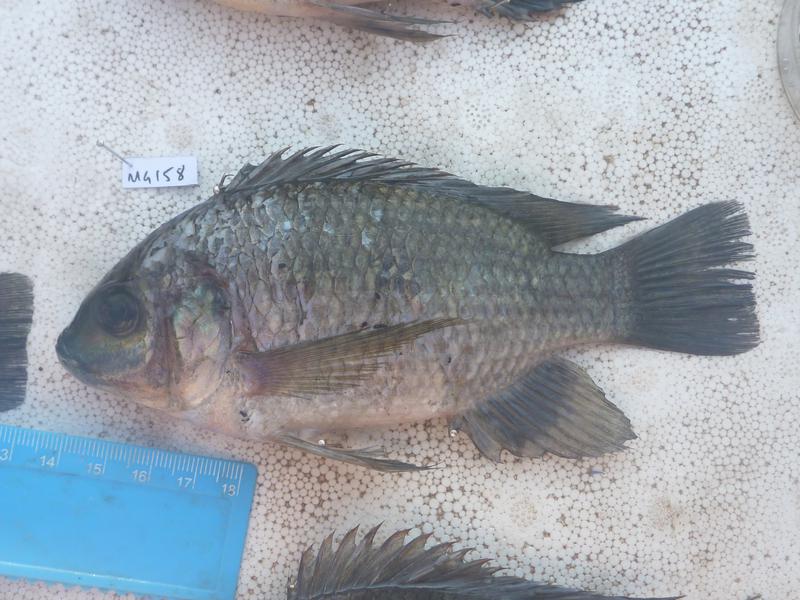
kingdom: Animalia
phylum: Chordata
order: Perciformes
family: Cichlidae
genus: Oreochromis
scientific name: Oreochromis upembae
